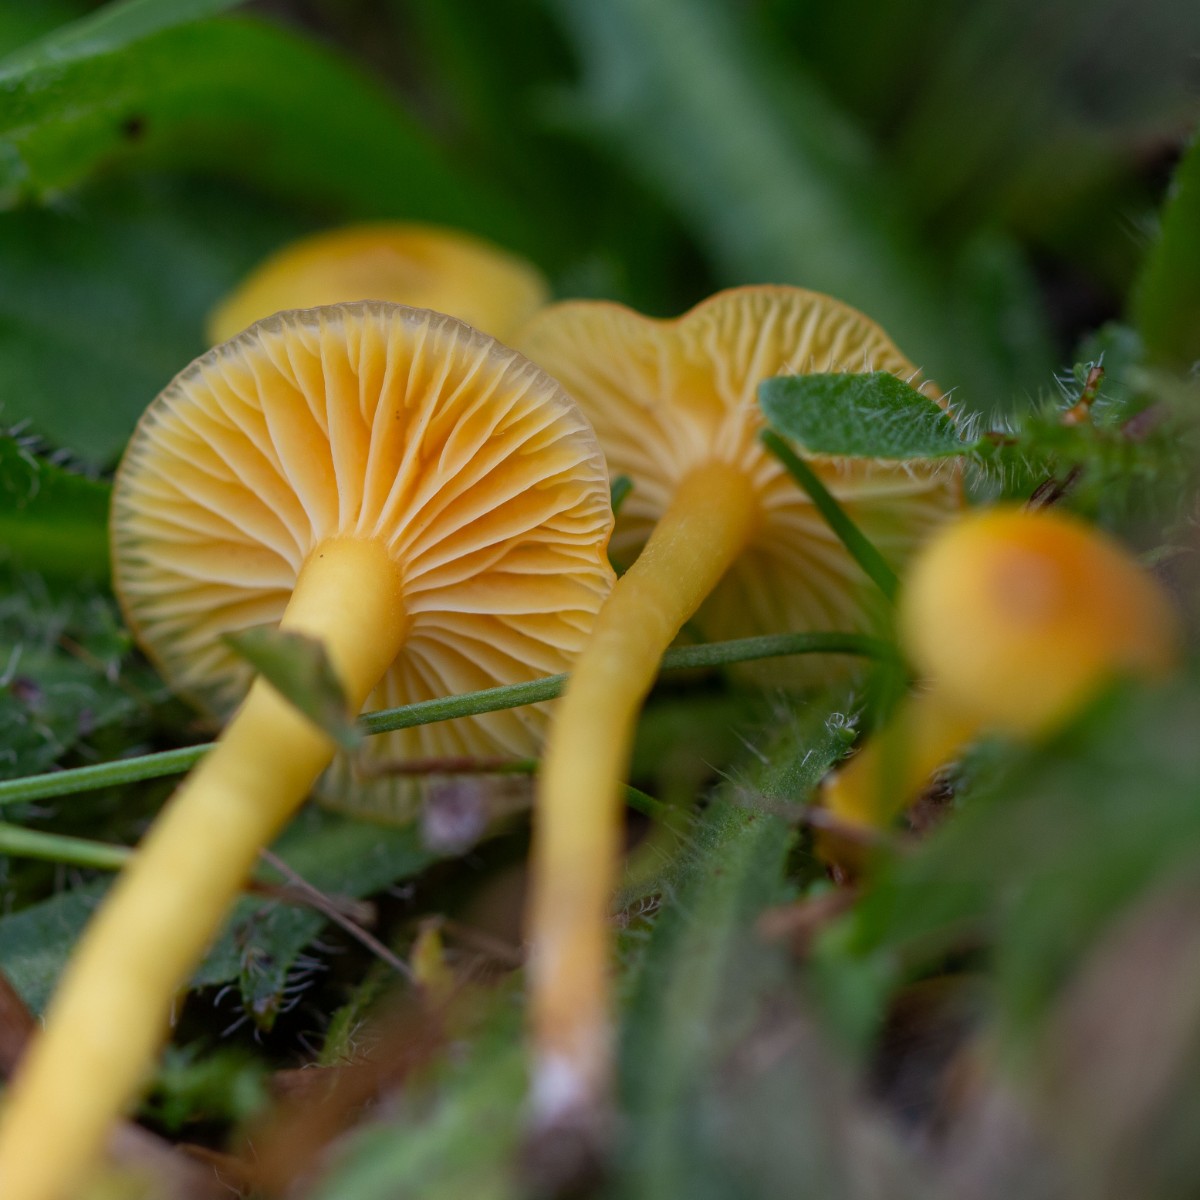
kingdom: Fungi
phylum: Basidiomycota
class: Agaricomycetes
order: Agaricales
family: Hygrophoraceae
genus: Hygrocybe
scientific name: Hygrocybe ceracea
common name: voksgul vokshat
